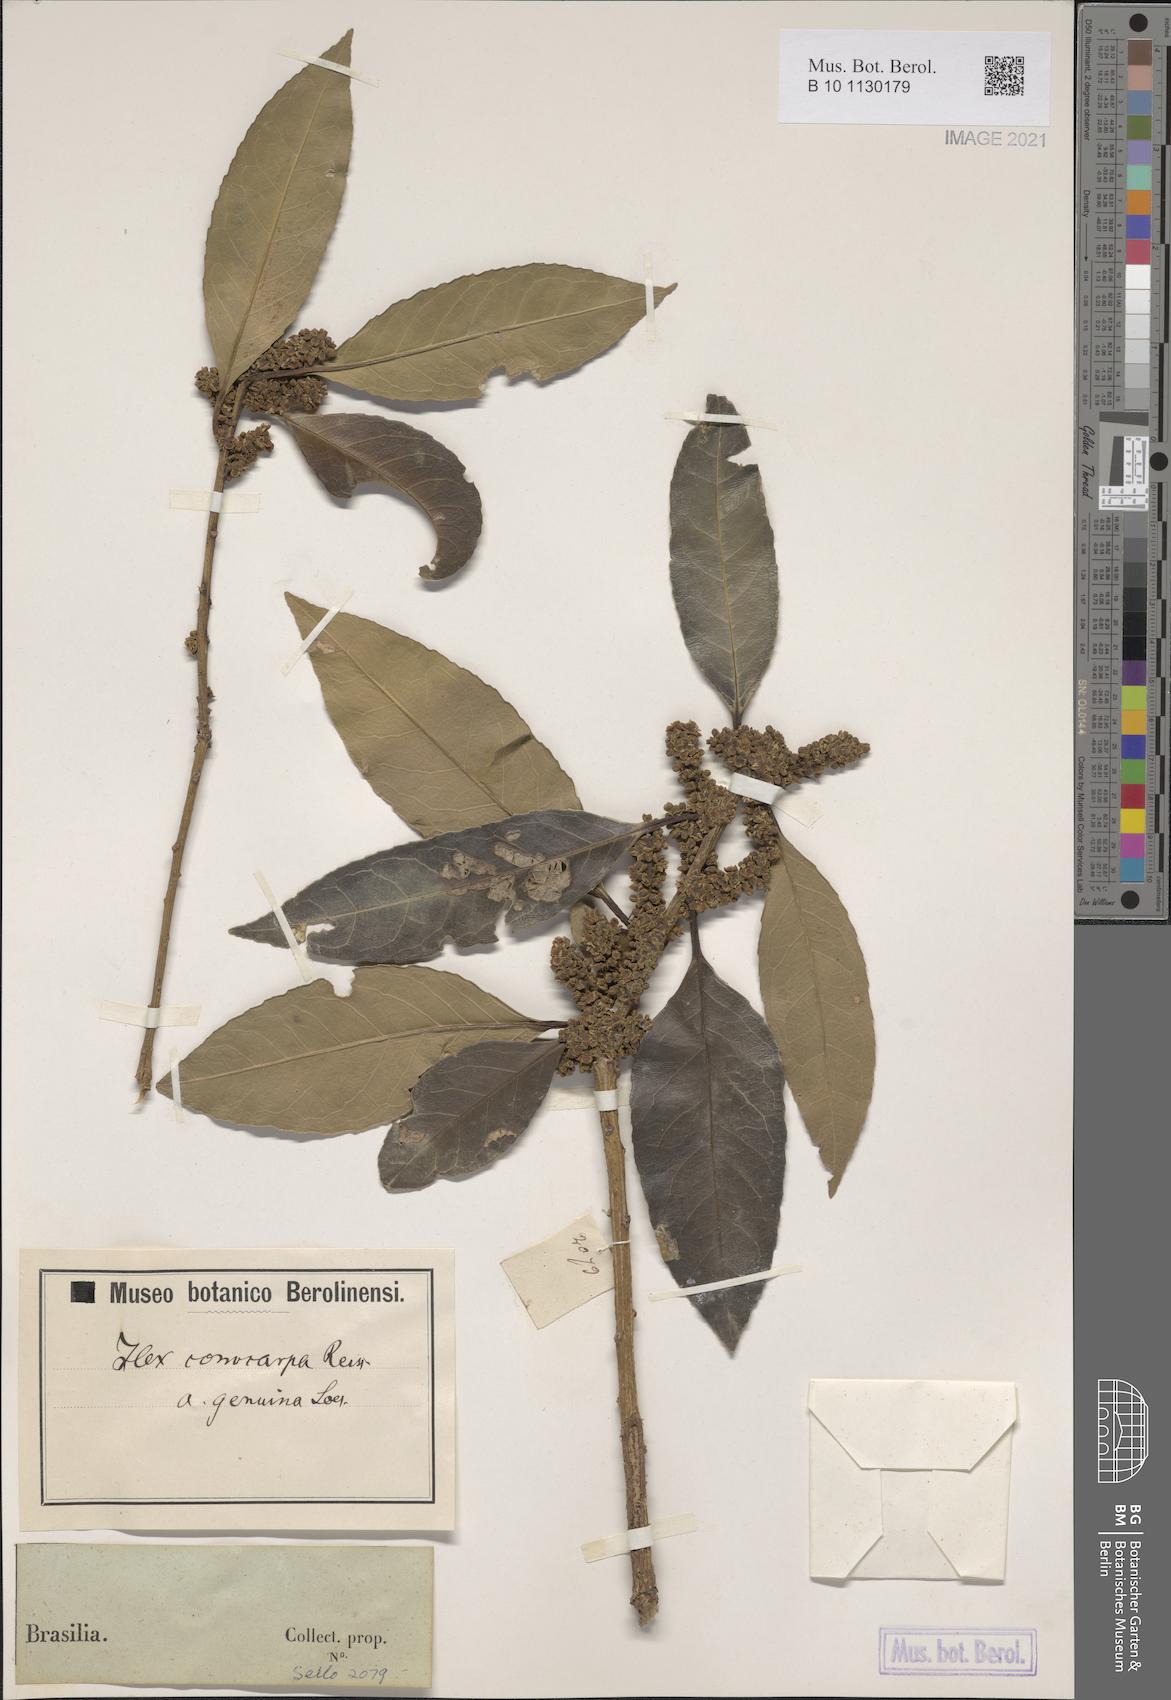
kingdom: Plantae
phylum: Tracheophyta
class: Magnoliopsida
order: Aquifoliales
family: Aquifoliaceae
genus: Ilex
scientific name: Ilex conocarpa
